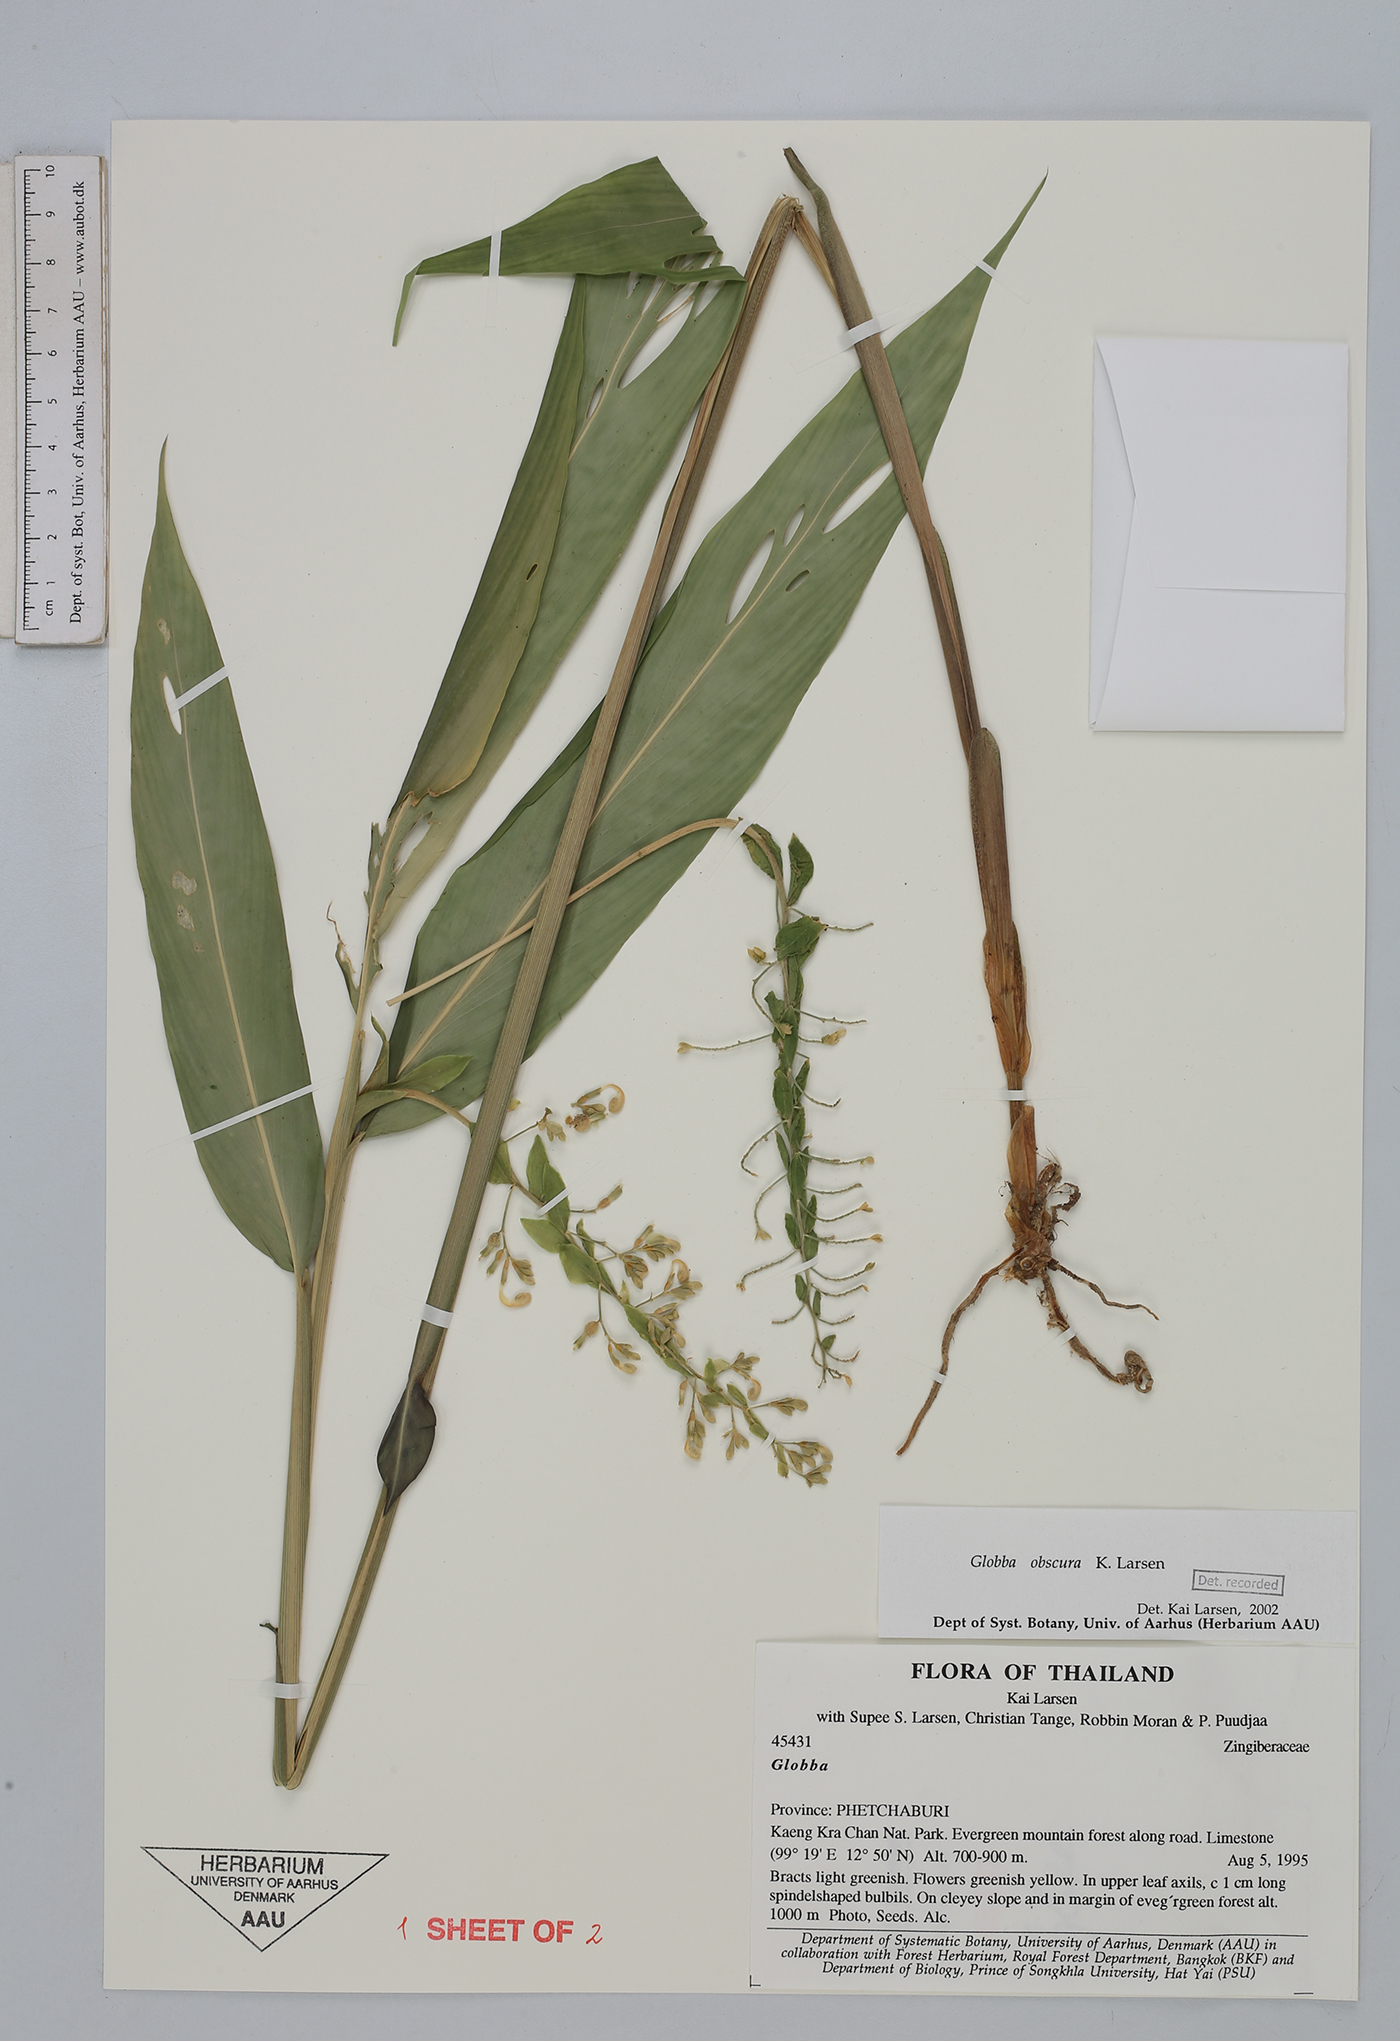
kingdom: Plantae
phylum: Tracheophyta
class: Liliopsida
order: Zingiberales
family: Zingiberaceae
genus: Globba
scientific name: Globba
